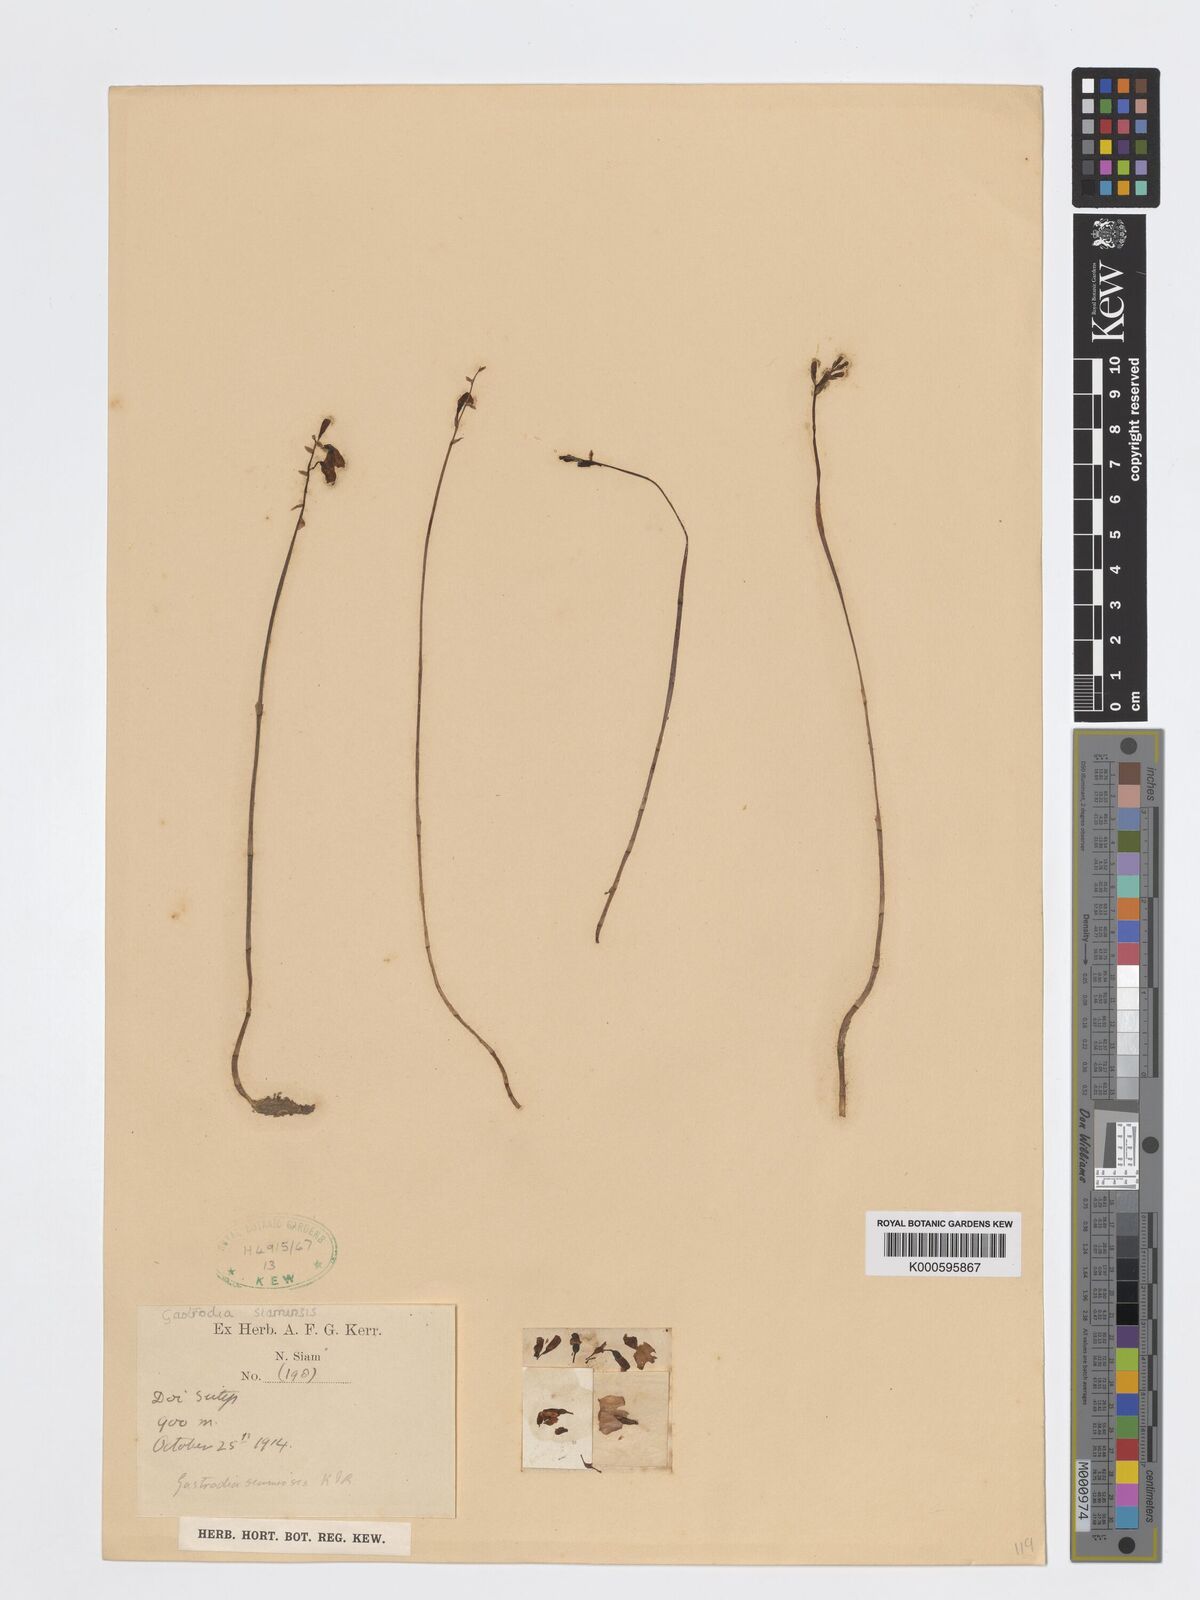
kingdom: Plantae
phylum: Tracheophyta
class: Liliopsida
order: Asparagales
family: Orchidaceae
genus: Gastrodia
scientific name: Gastrodia exilis
